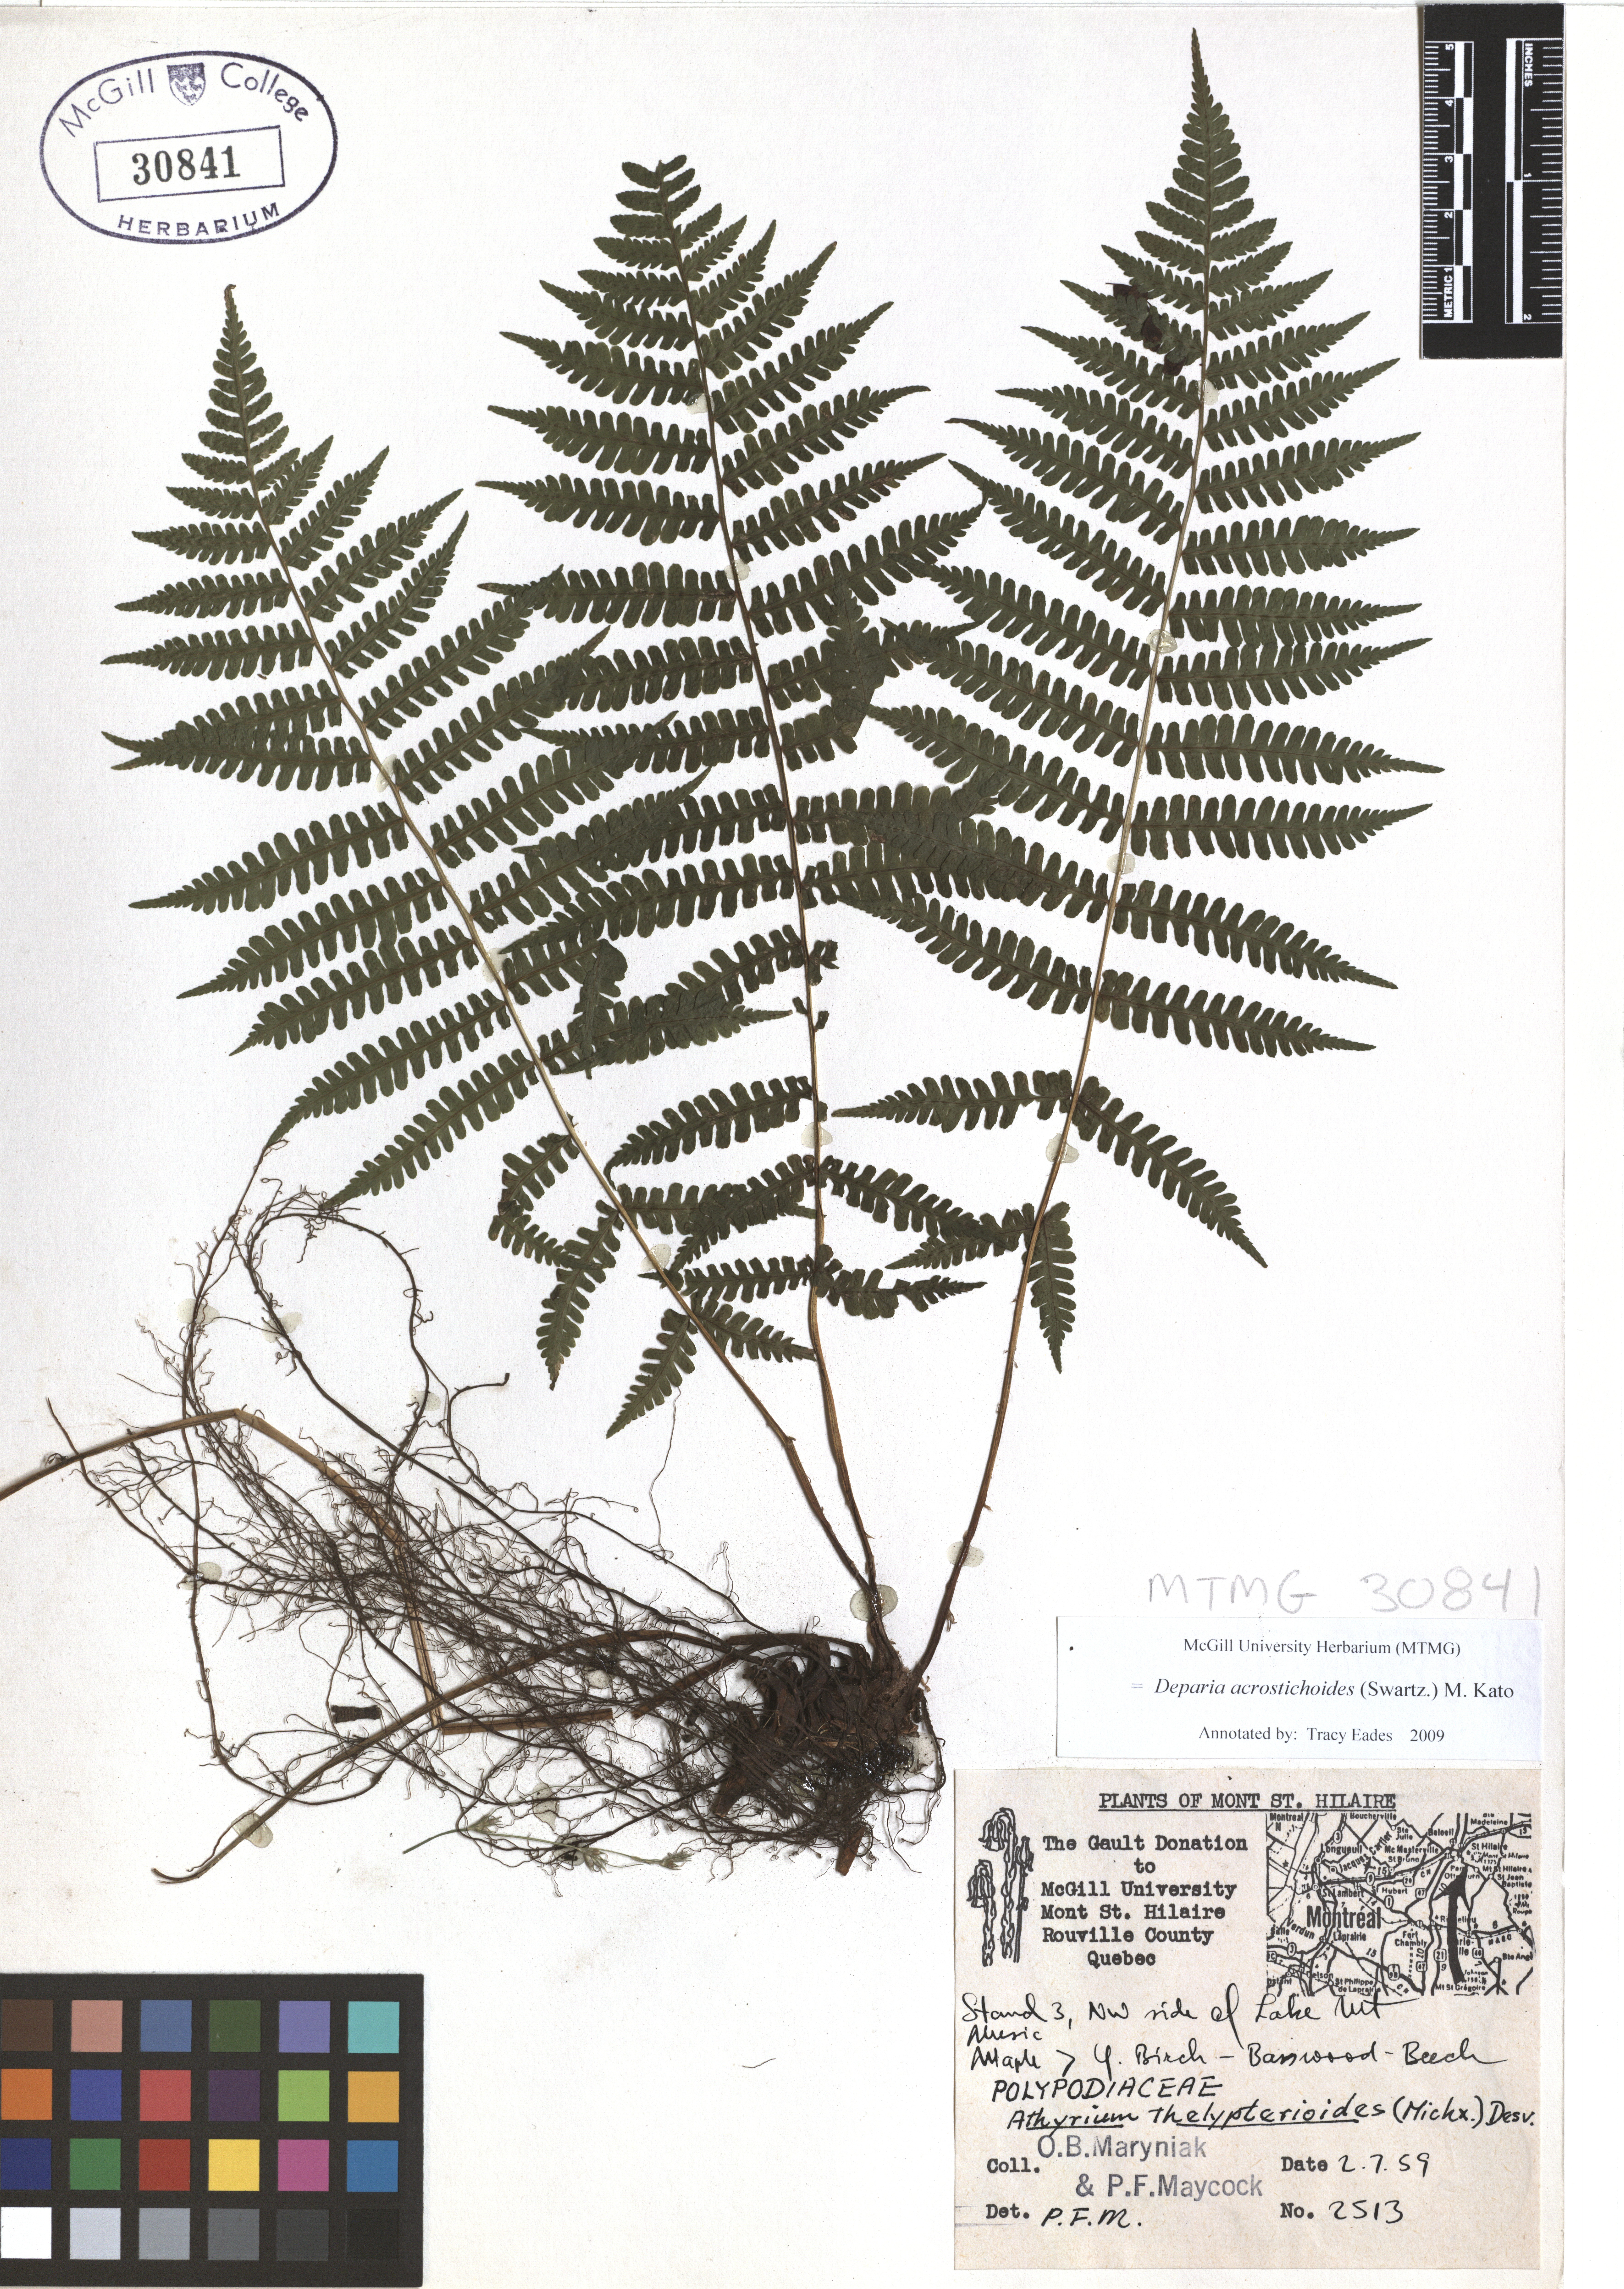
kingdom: Plantae
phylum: Tracheophyta
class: Polypodiopsida
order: Polypodiales
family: Athyriaceae
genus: Deparia
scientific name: Deparia acrostichoides
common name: Silver false spleenwort
